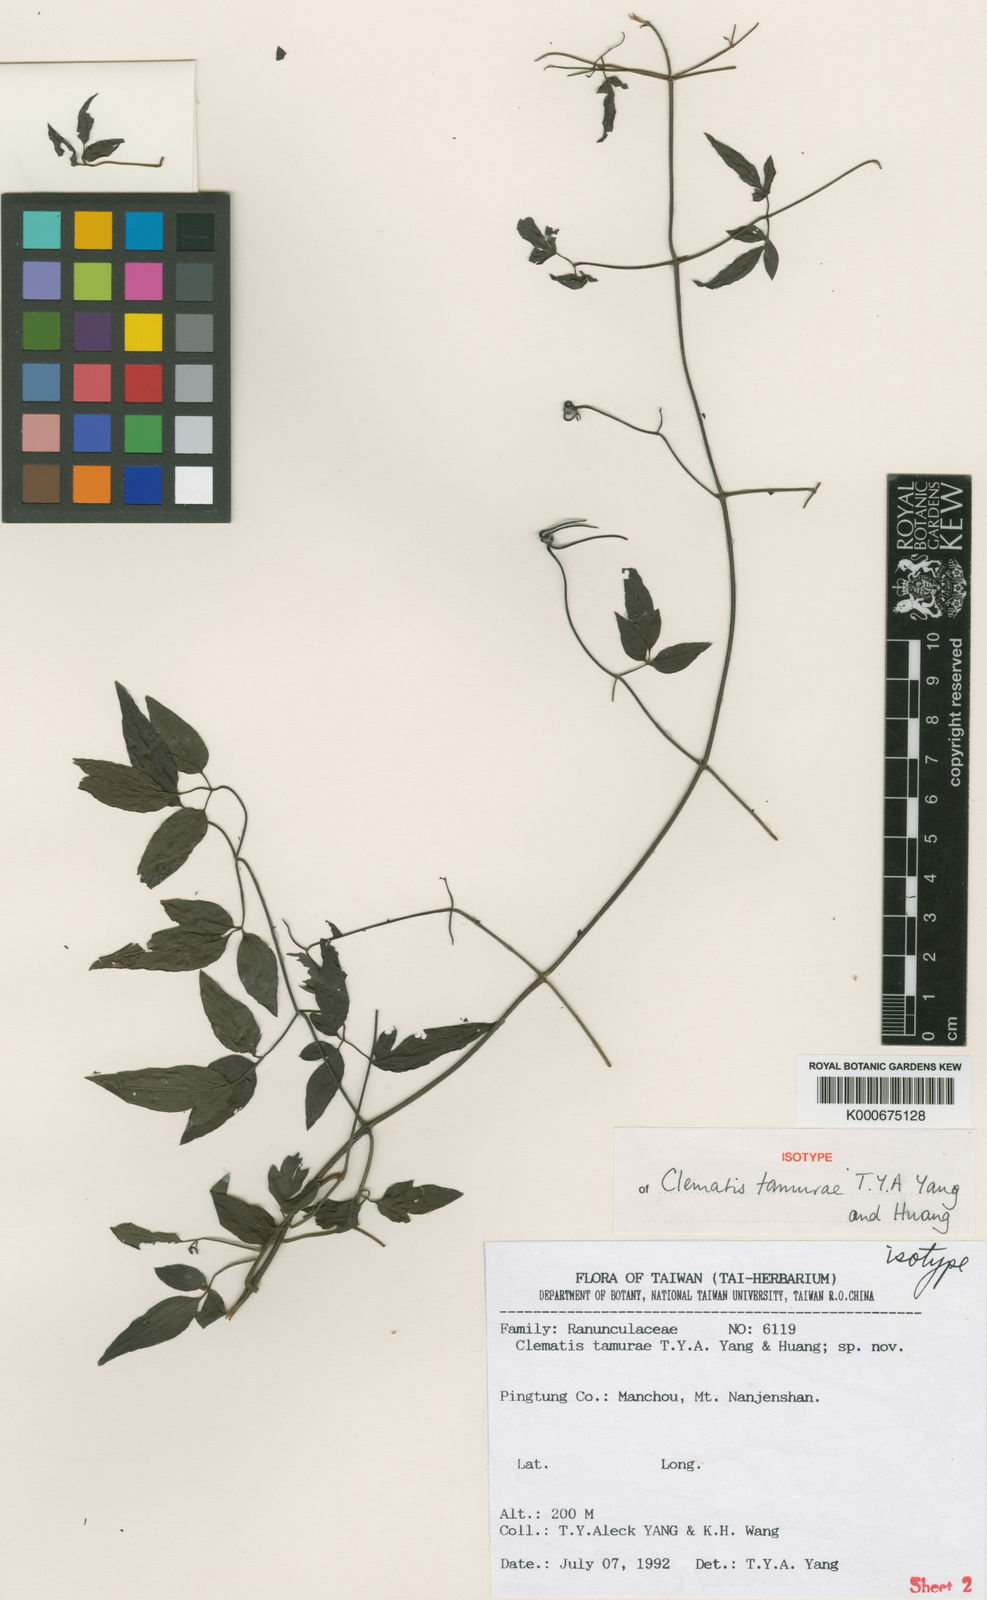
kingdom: Plantae
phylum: Tracheophyta
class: Magnoliopsida
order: Ranunculales
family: Ranunculaceae
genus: Clematis
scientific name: Clematis tamurae
